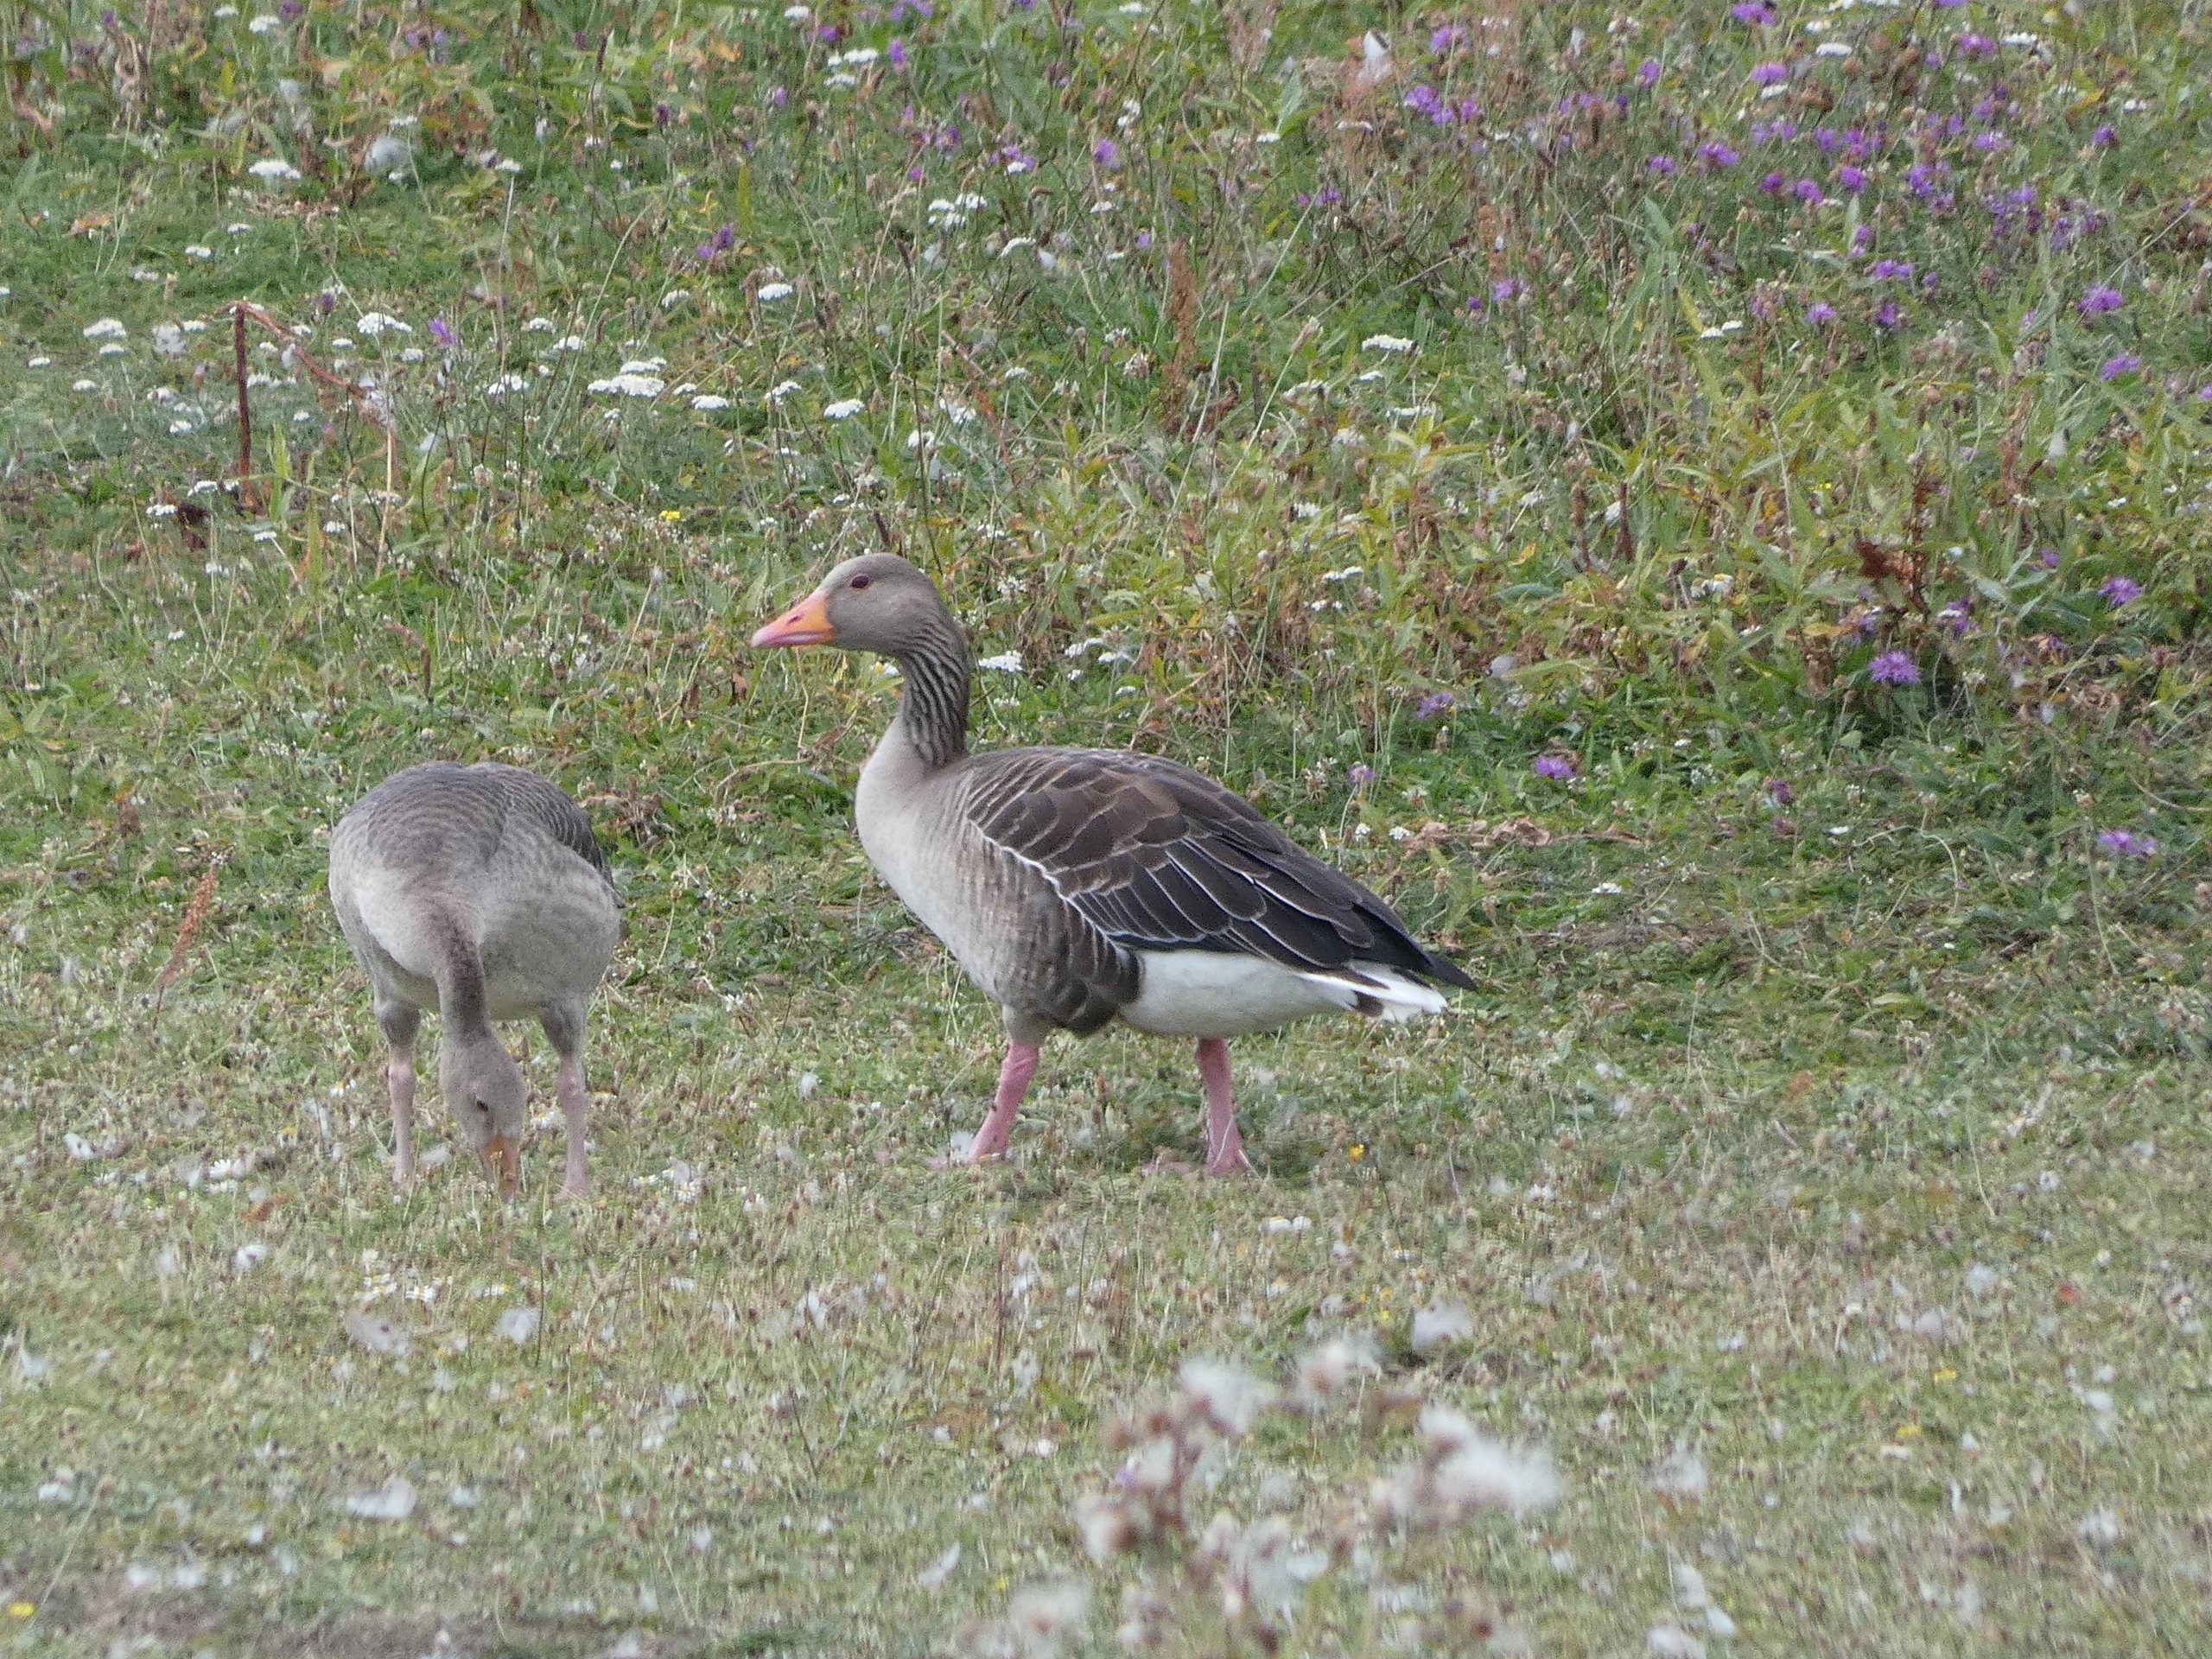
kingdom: Animalia
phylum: Chordata
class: Aves
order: Anseriformes
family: Anatidae
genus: Anser
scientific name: Anser anser
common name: Grågås
